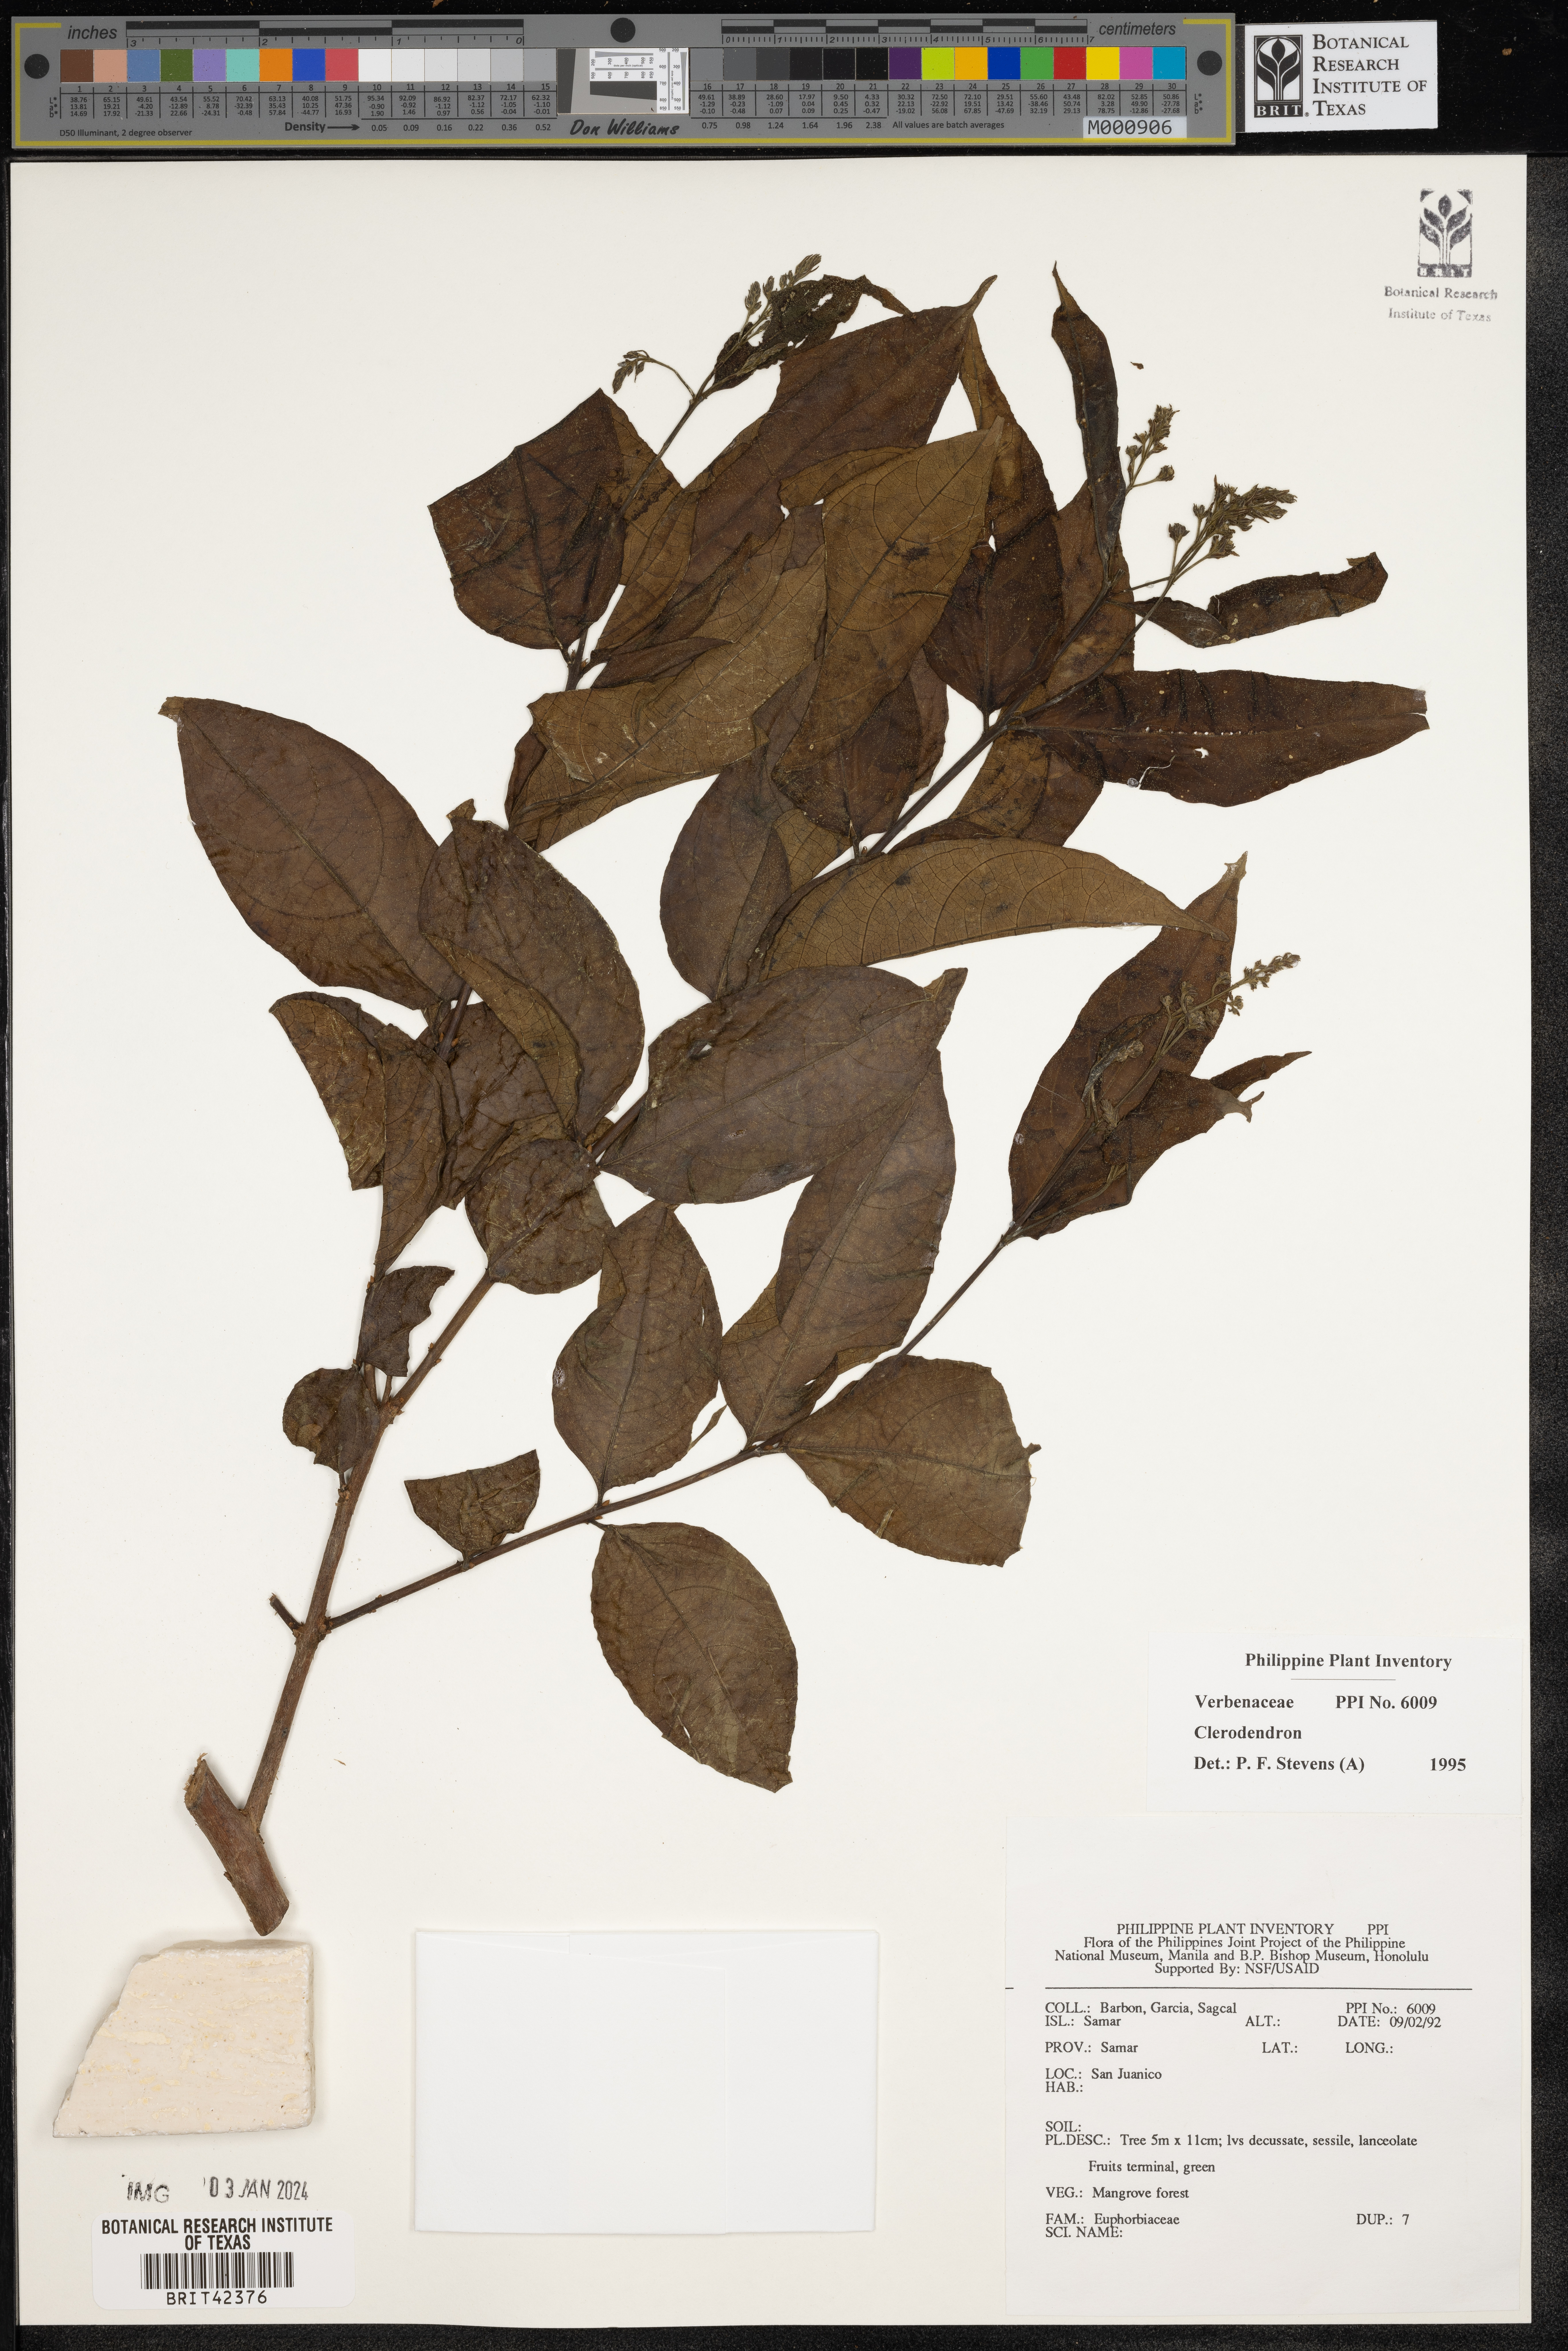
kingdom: Plantae
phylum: Tracheophyta
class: Magnoliopsida
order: Lamiales
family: Lamiaceae
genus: Clerodendrum
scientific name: Clerodendrum
